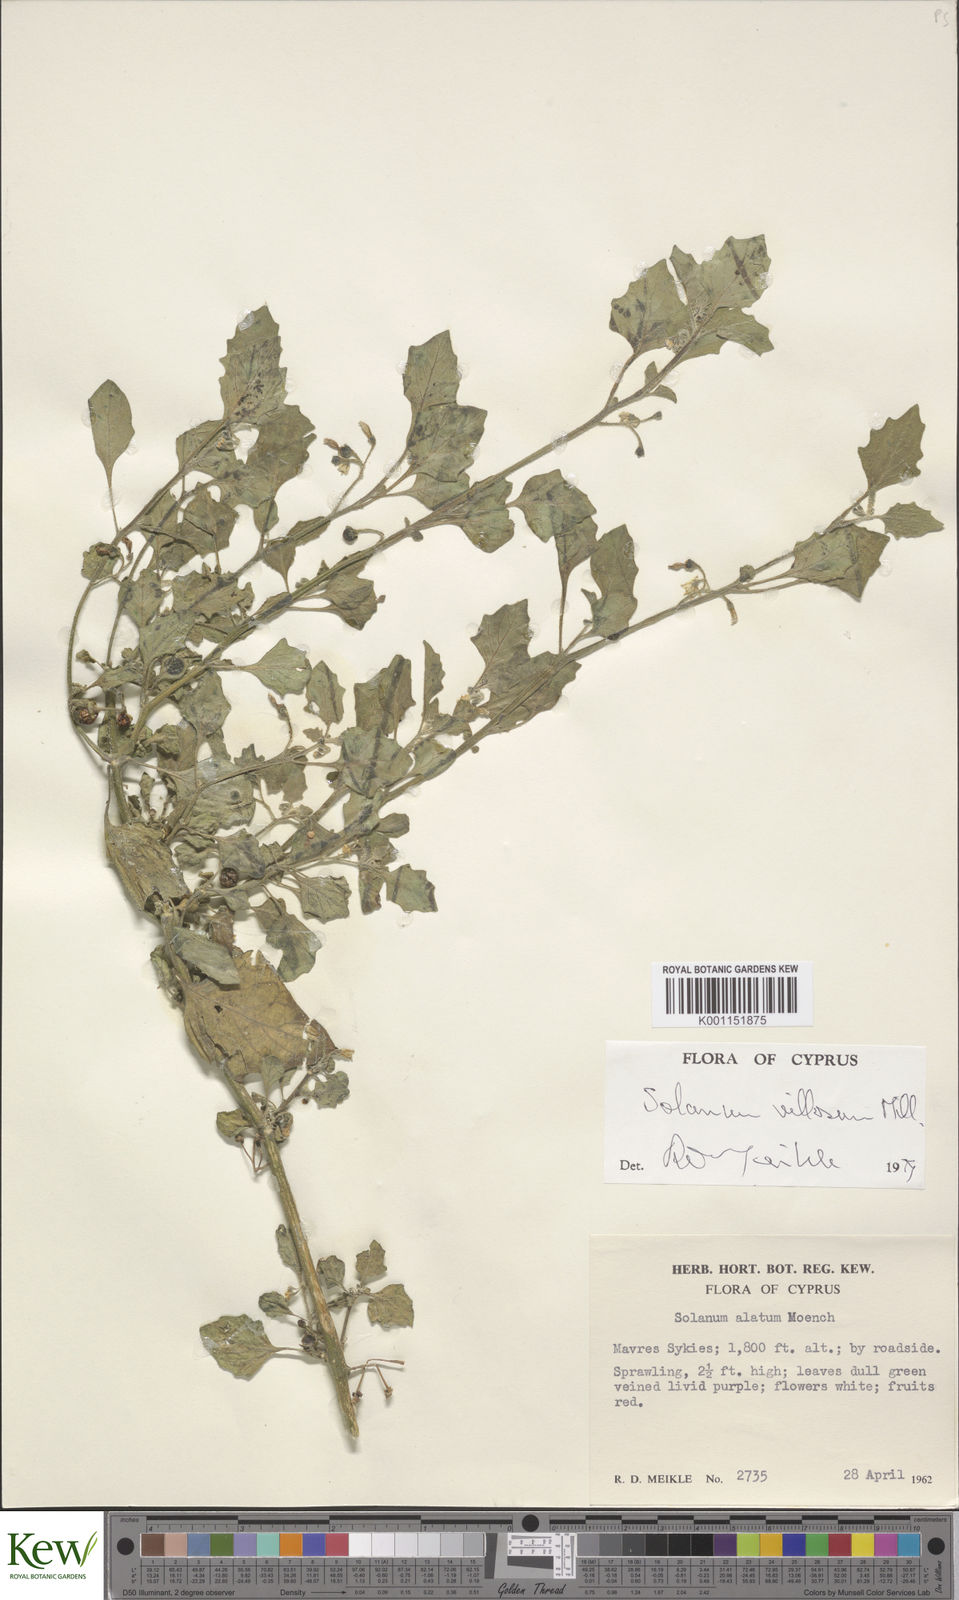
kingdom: Plantae
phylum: Tracheophyta
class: Magnoliopsida
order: Solanales
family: Solanaceae
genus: Solanum
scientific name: Solanum villosum
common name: Red nightshade
